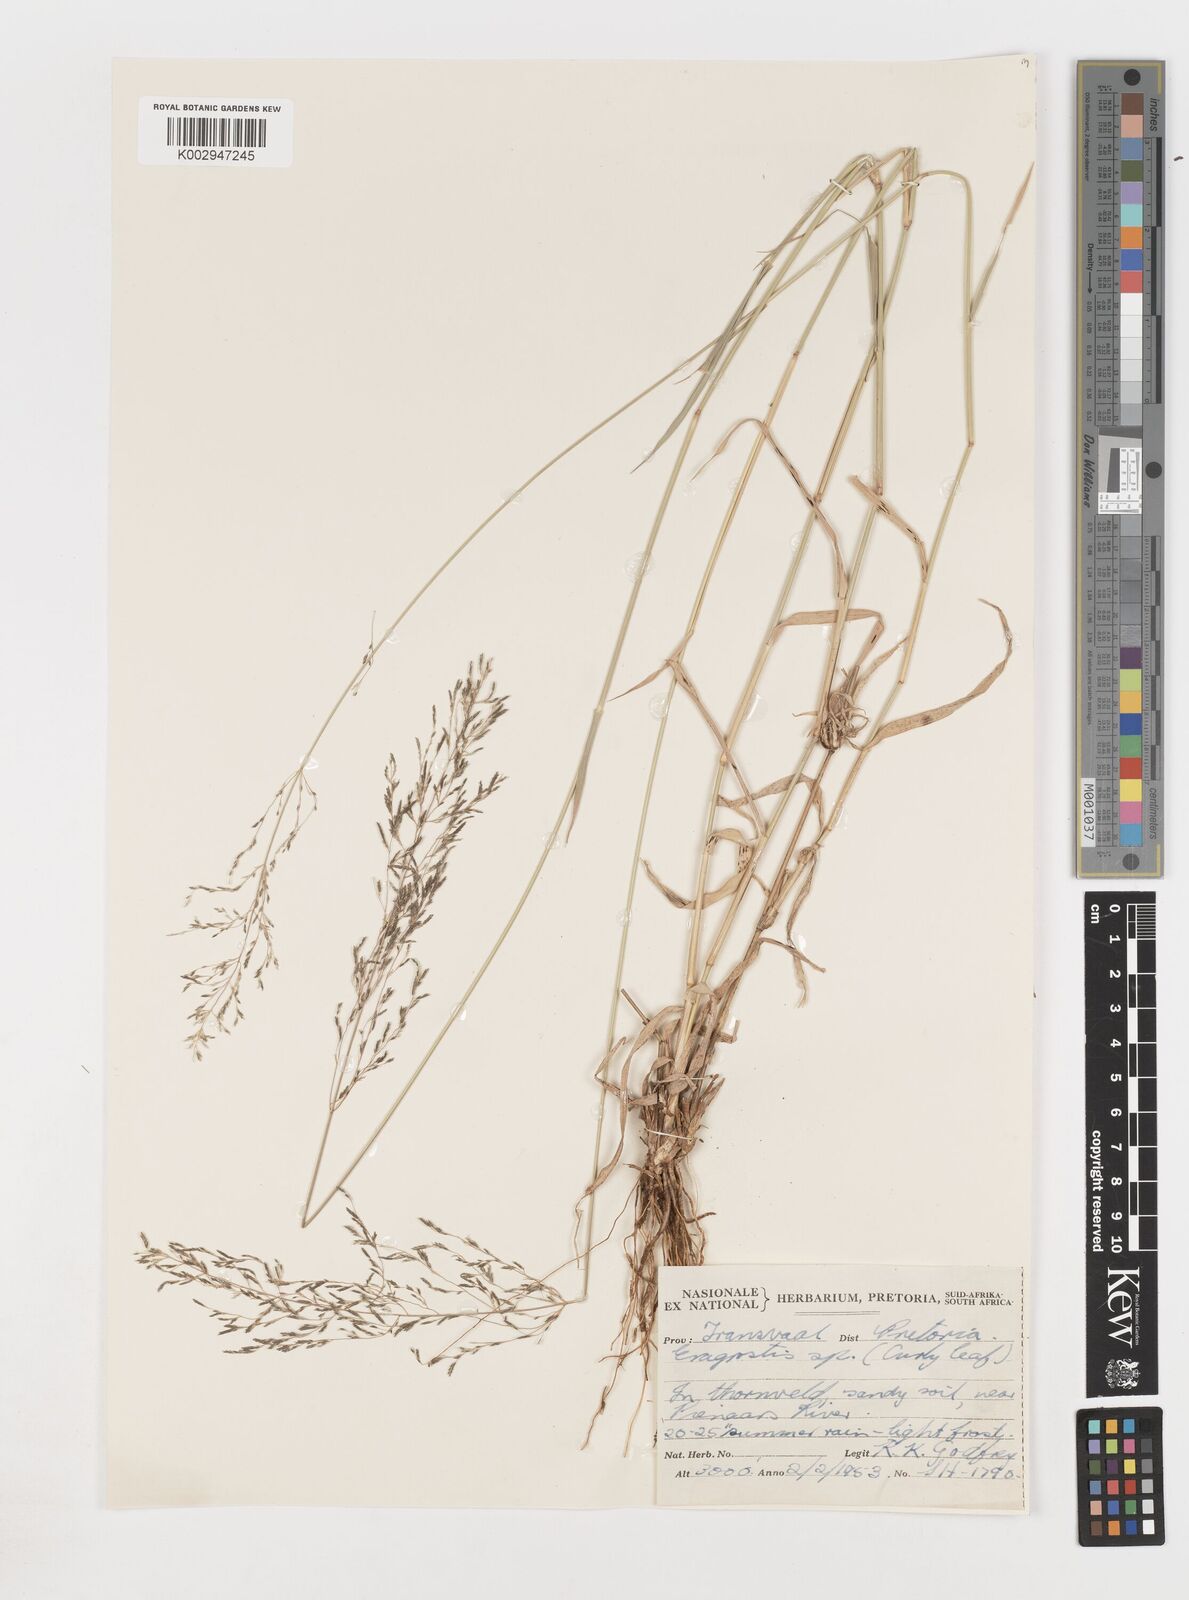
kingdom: Plantae
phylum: Tracheophyta
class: Liliopsida
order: Poales
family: Poaceae
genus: Eragrostis
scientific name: Eragrostis
